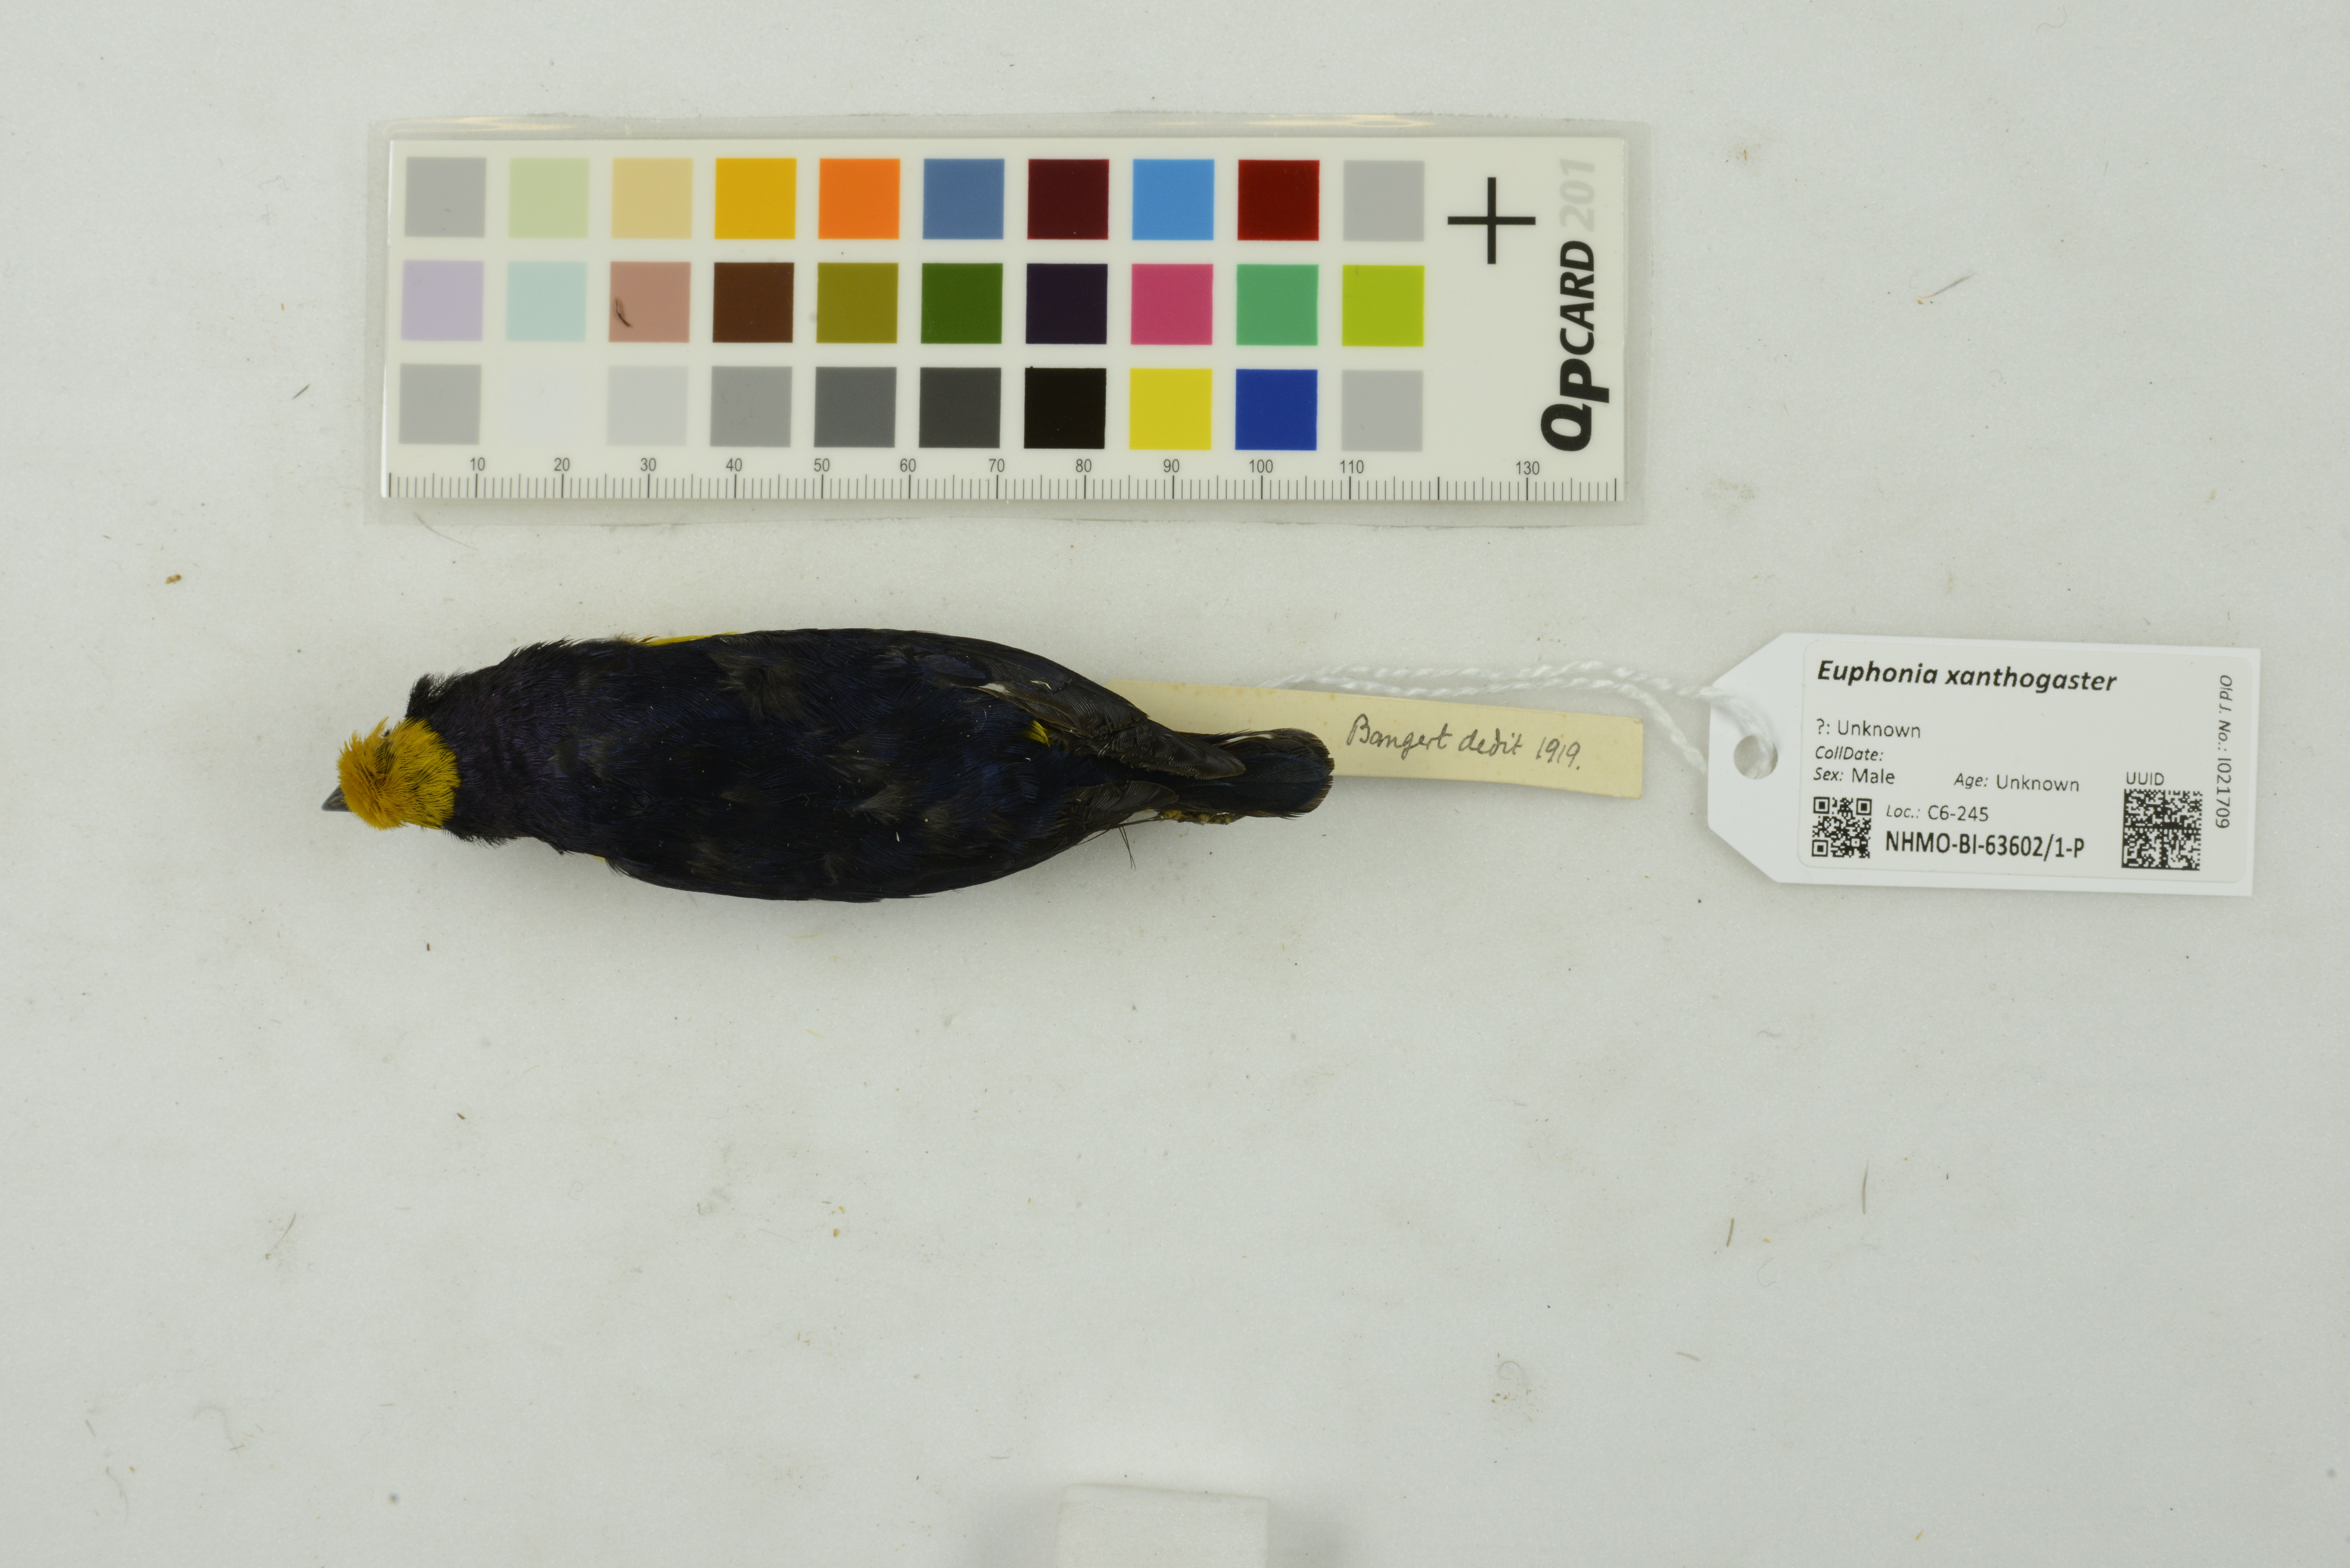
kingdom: Animalia
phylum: Chordata
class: Aves
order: Passeriformes
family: Fringillidae
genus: Euphonia
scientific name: Euphonia xanthogaster
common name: Orange-bellied euphonia
